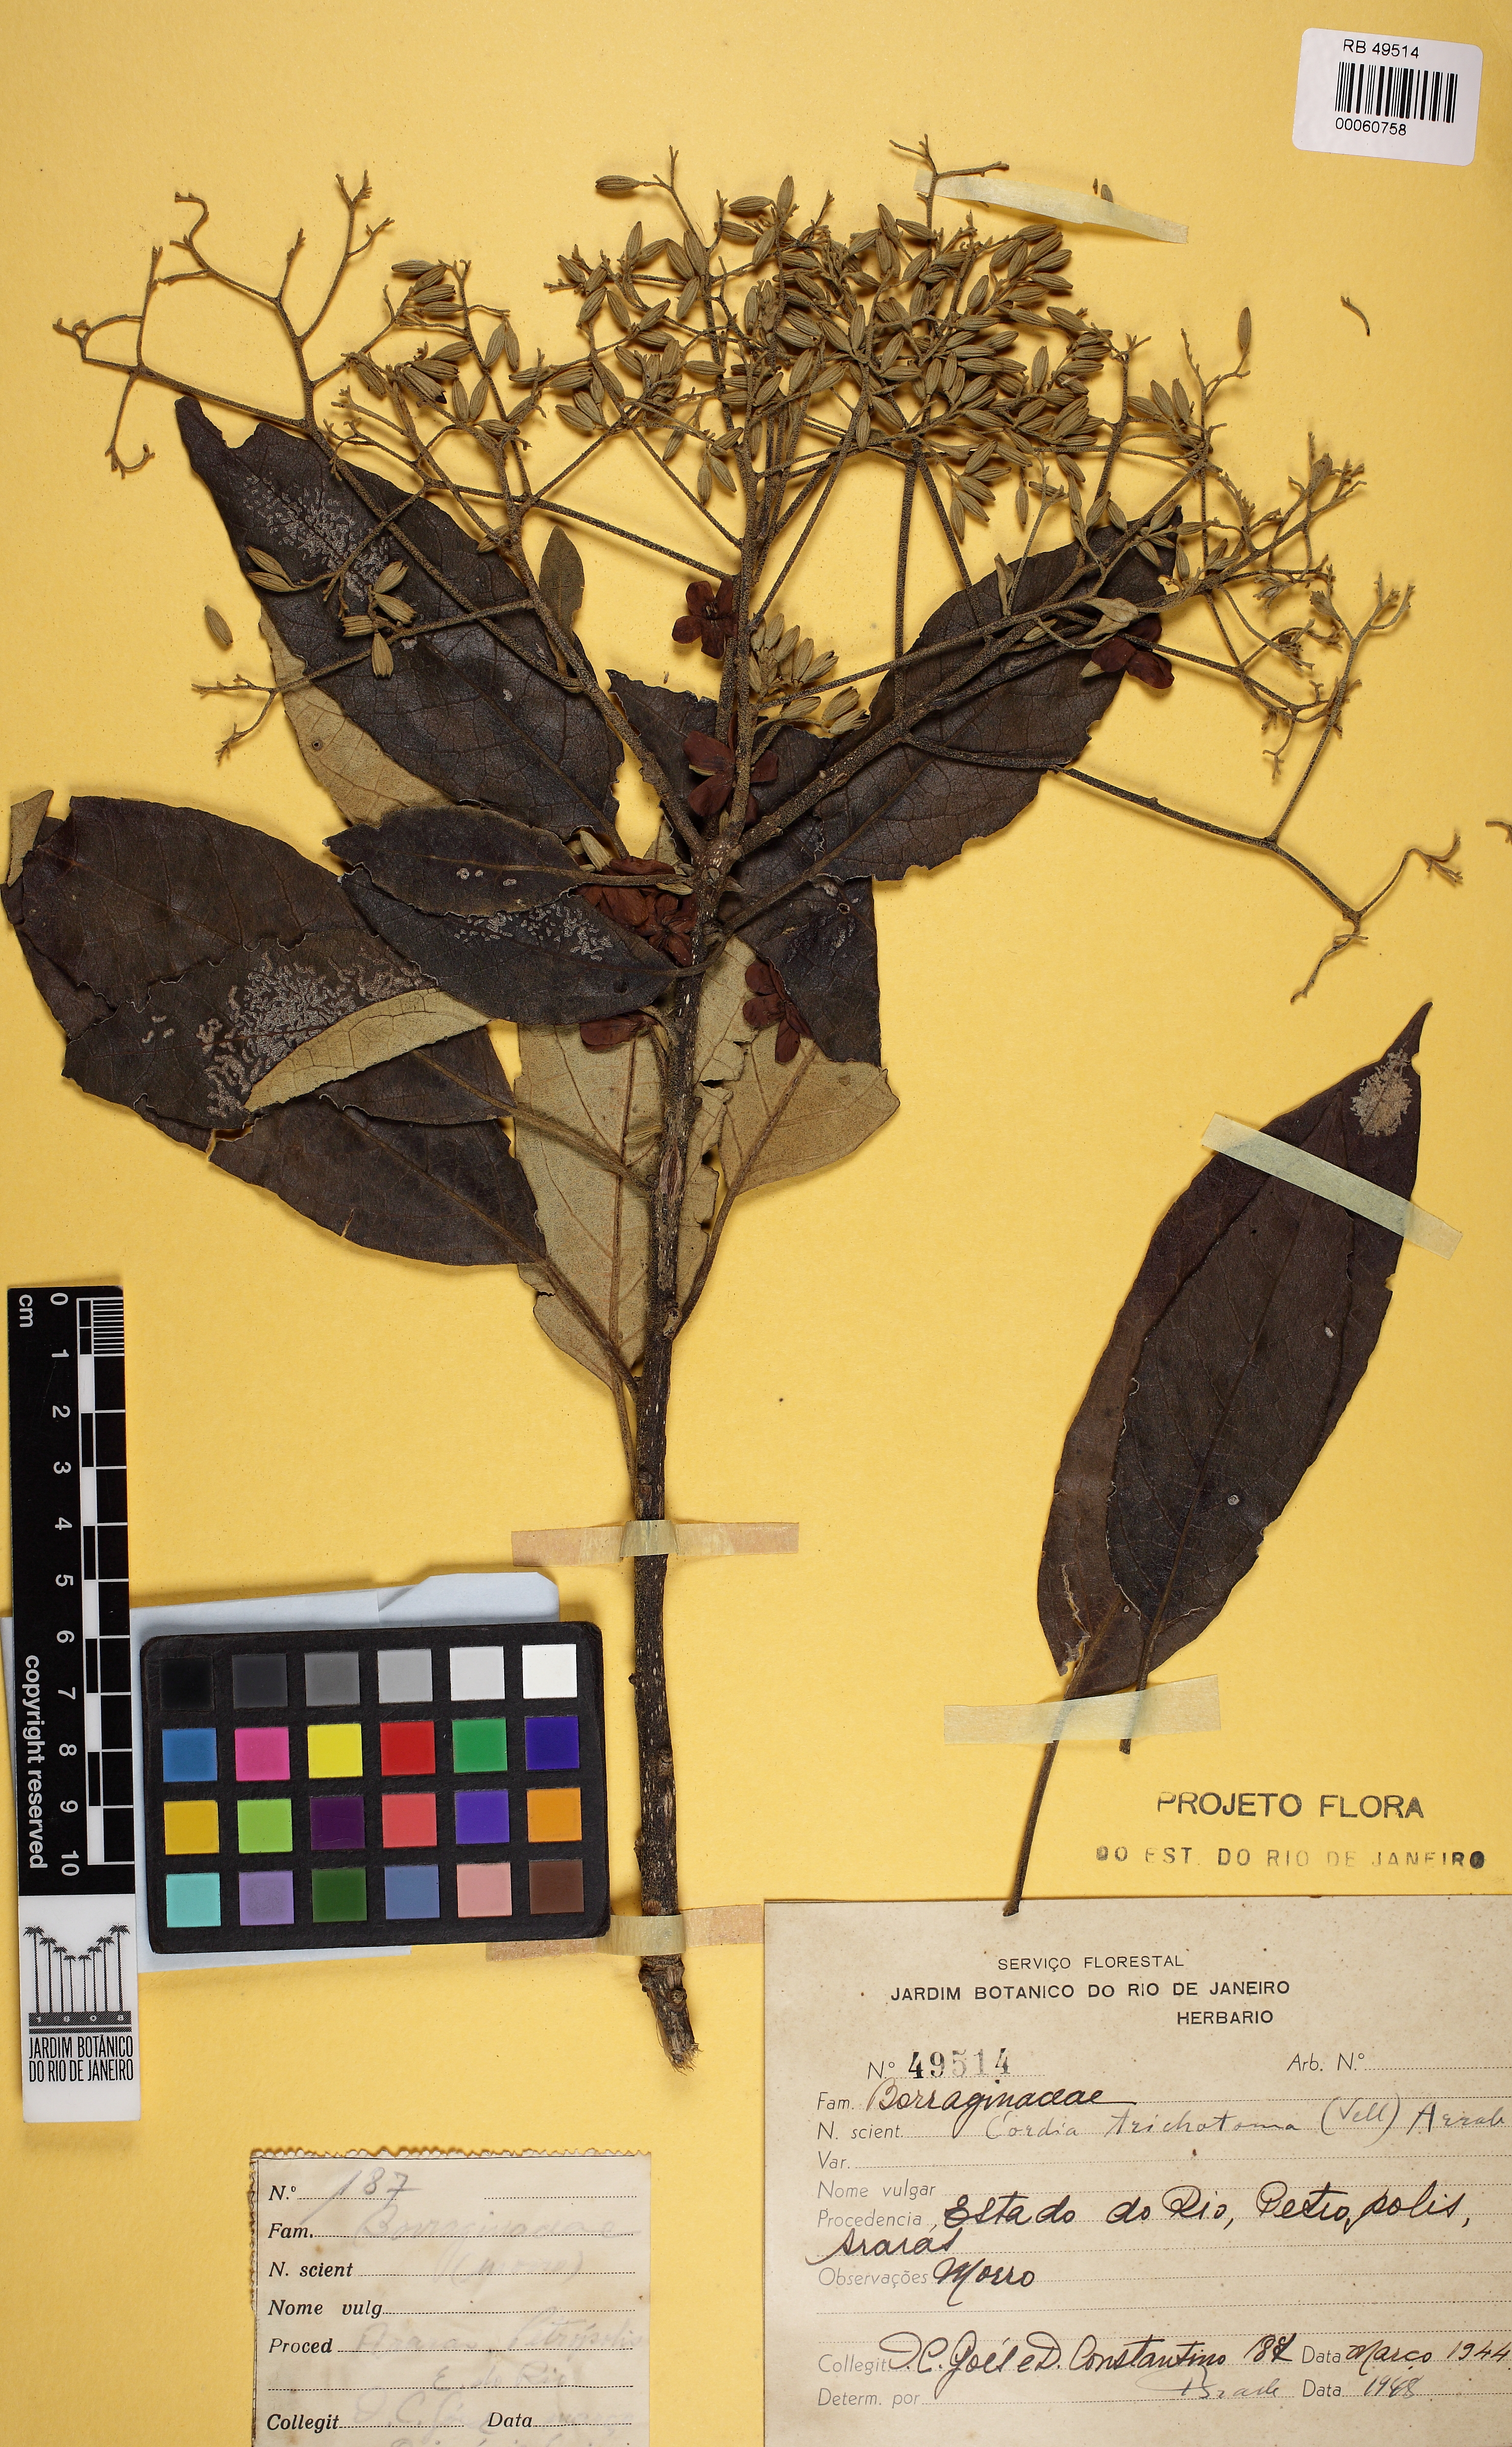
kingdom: Plantae
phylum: Tracheophyta
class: Magnoliopsida
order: Boraginales
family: Cordiaceae
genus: Cordia
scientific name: Cordia trichotoma
